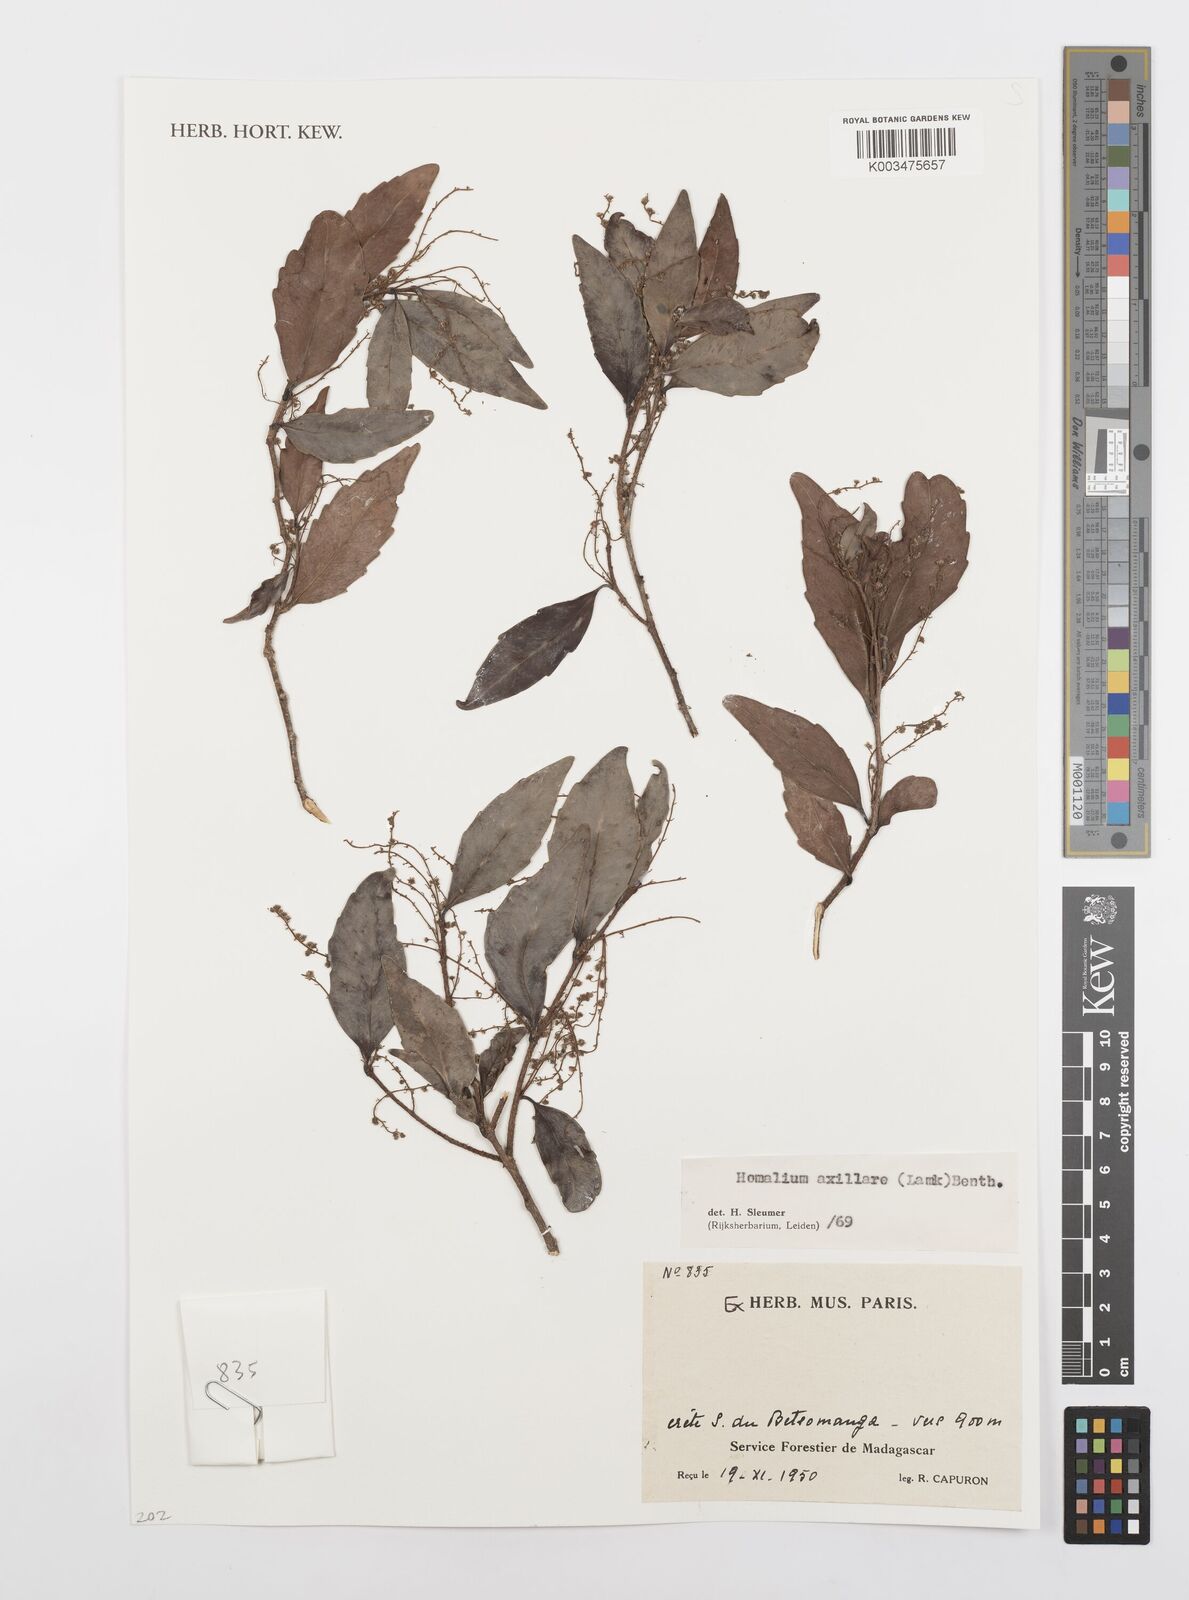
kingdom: Plantae
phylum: Tracheophyta
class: Magnoliopsida
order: Malpighiales
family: Salicaceae
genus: Homalium
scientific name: Homalium axillare
